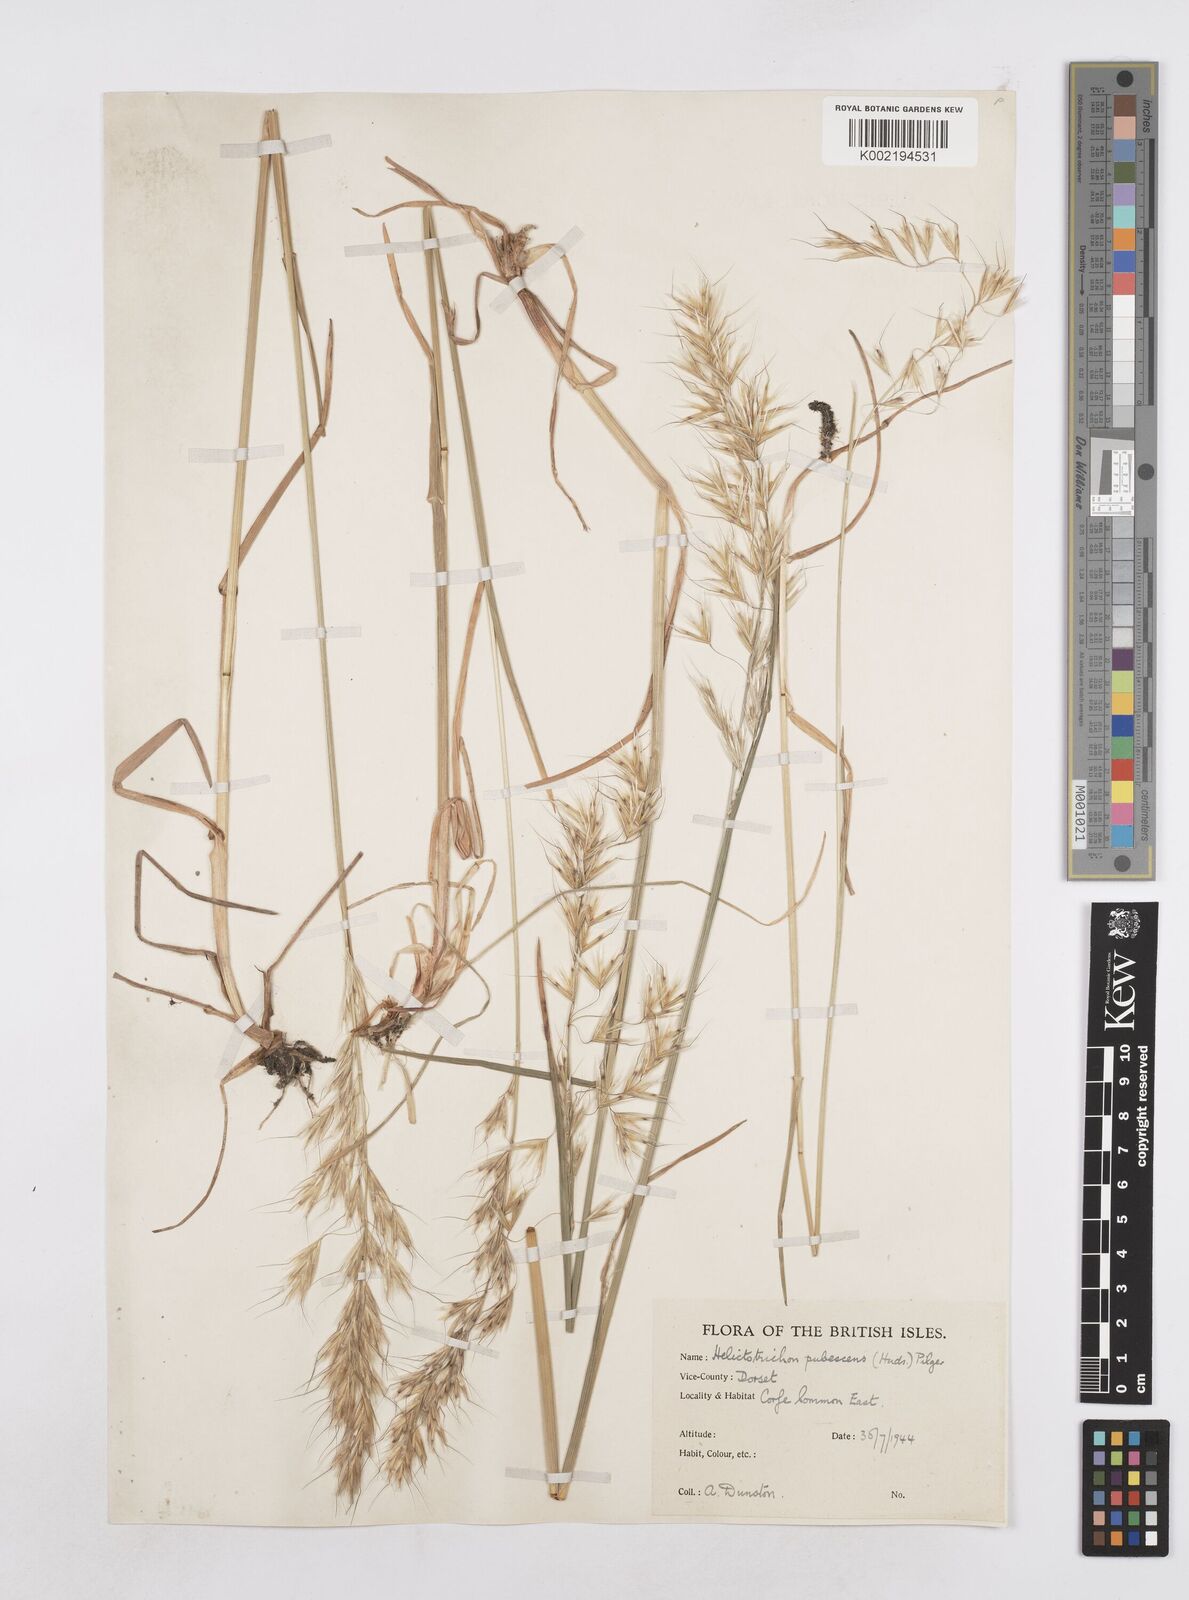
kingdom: Plantae
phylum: Tracheophyta
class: Liliopsida
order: Poales
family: Poaceae
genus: Avenula
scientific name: Avenula pubescens
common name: Downy alpine oatgrass
